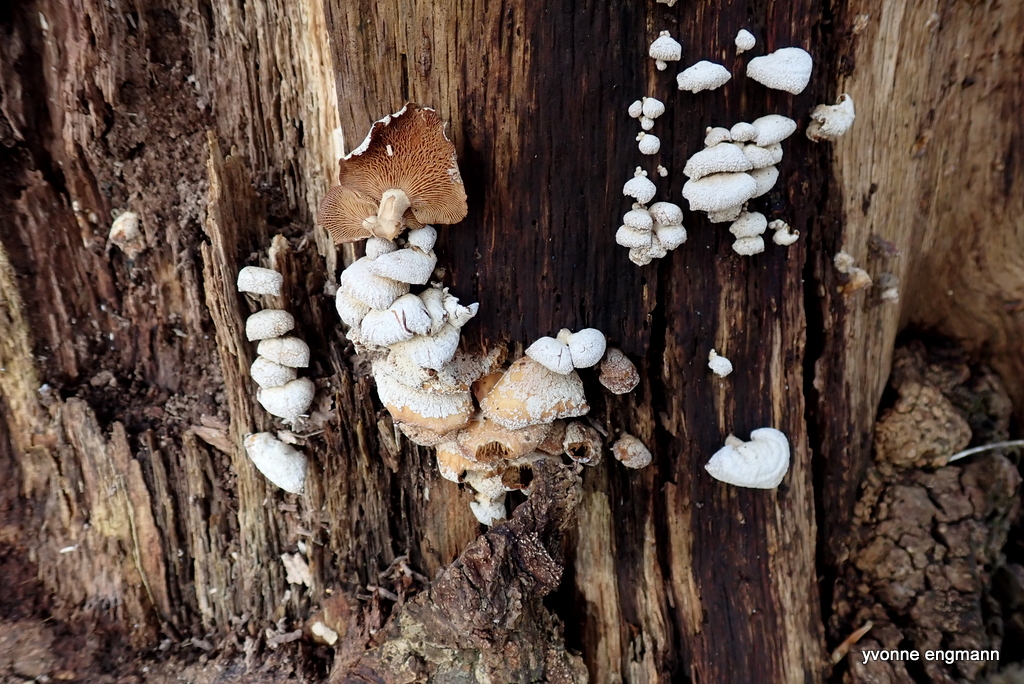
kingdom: Fungi
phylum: Basidiomycota
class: Agaricomycetes
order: Agaricales
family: Mycenaceae
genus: Panellus
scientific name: Panellus stipticus
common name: kliddet epaulethat
